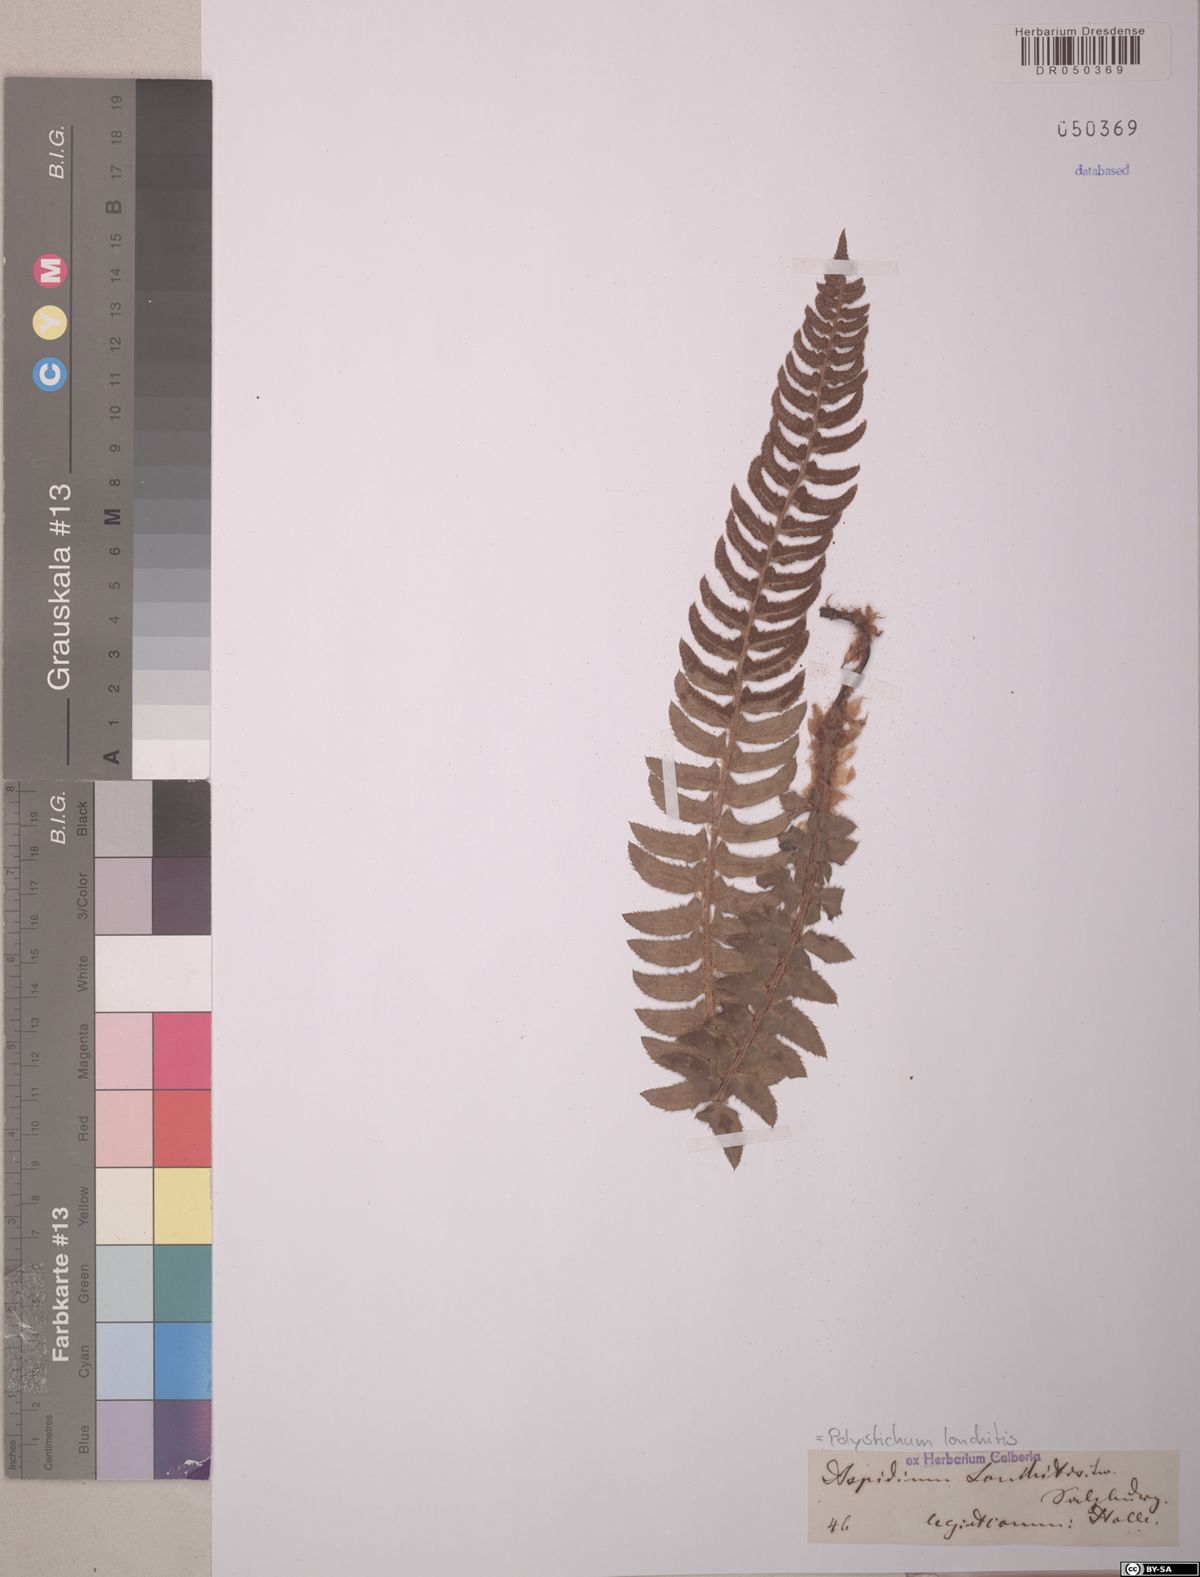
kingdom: Plantae
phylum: Tracheophyta
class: Polypodiopsida
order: Polypodiales
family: Dryopteridaceae
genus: Polystichum
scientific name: Polystichum lonchitis
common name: Holly fern
